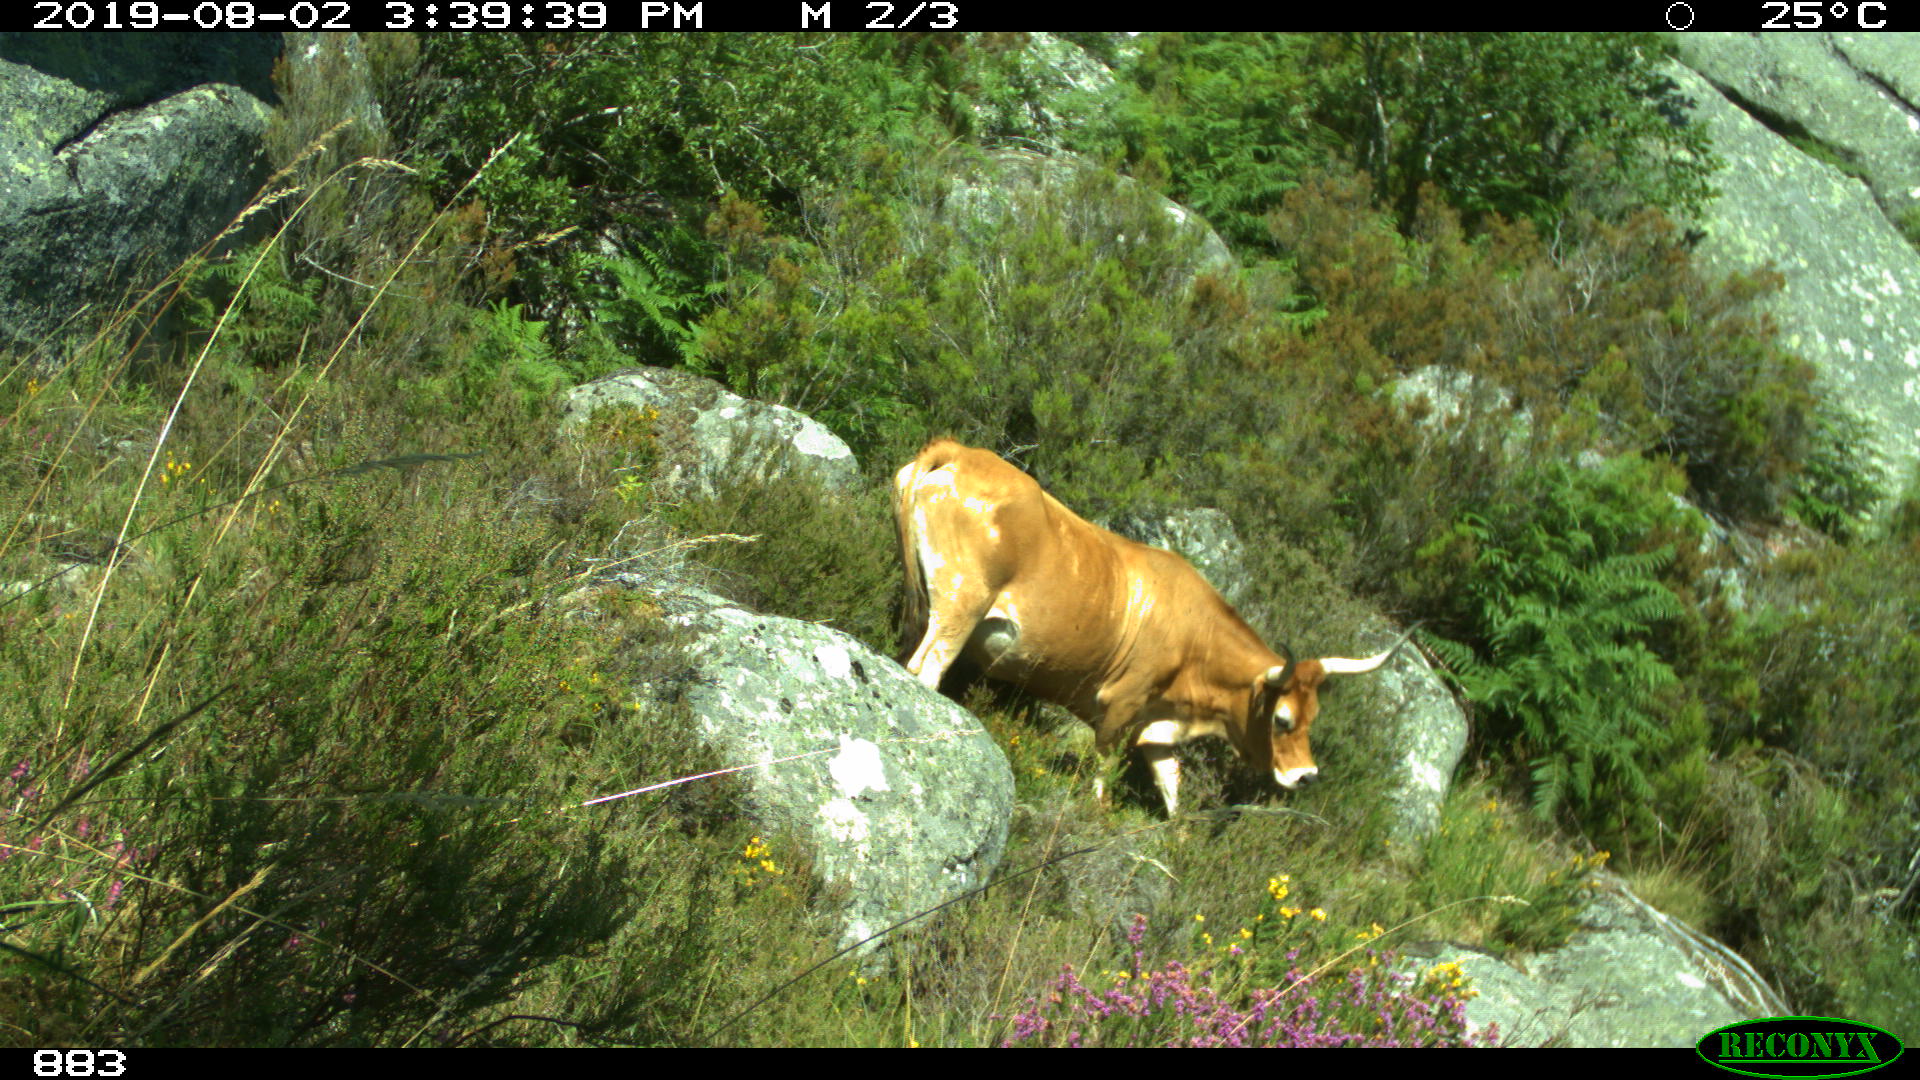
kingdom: Animalia
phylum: Chordata
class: Mammalia
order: Artiodactyla
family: Bovidae
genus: Bos
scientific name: Bos taurus
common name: Domesticated cattle
